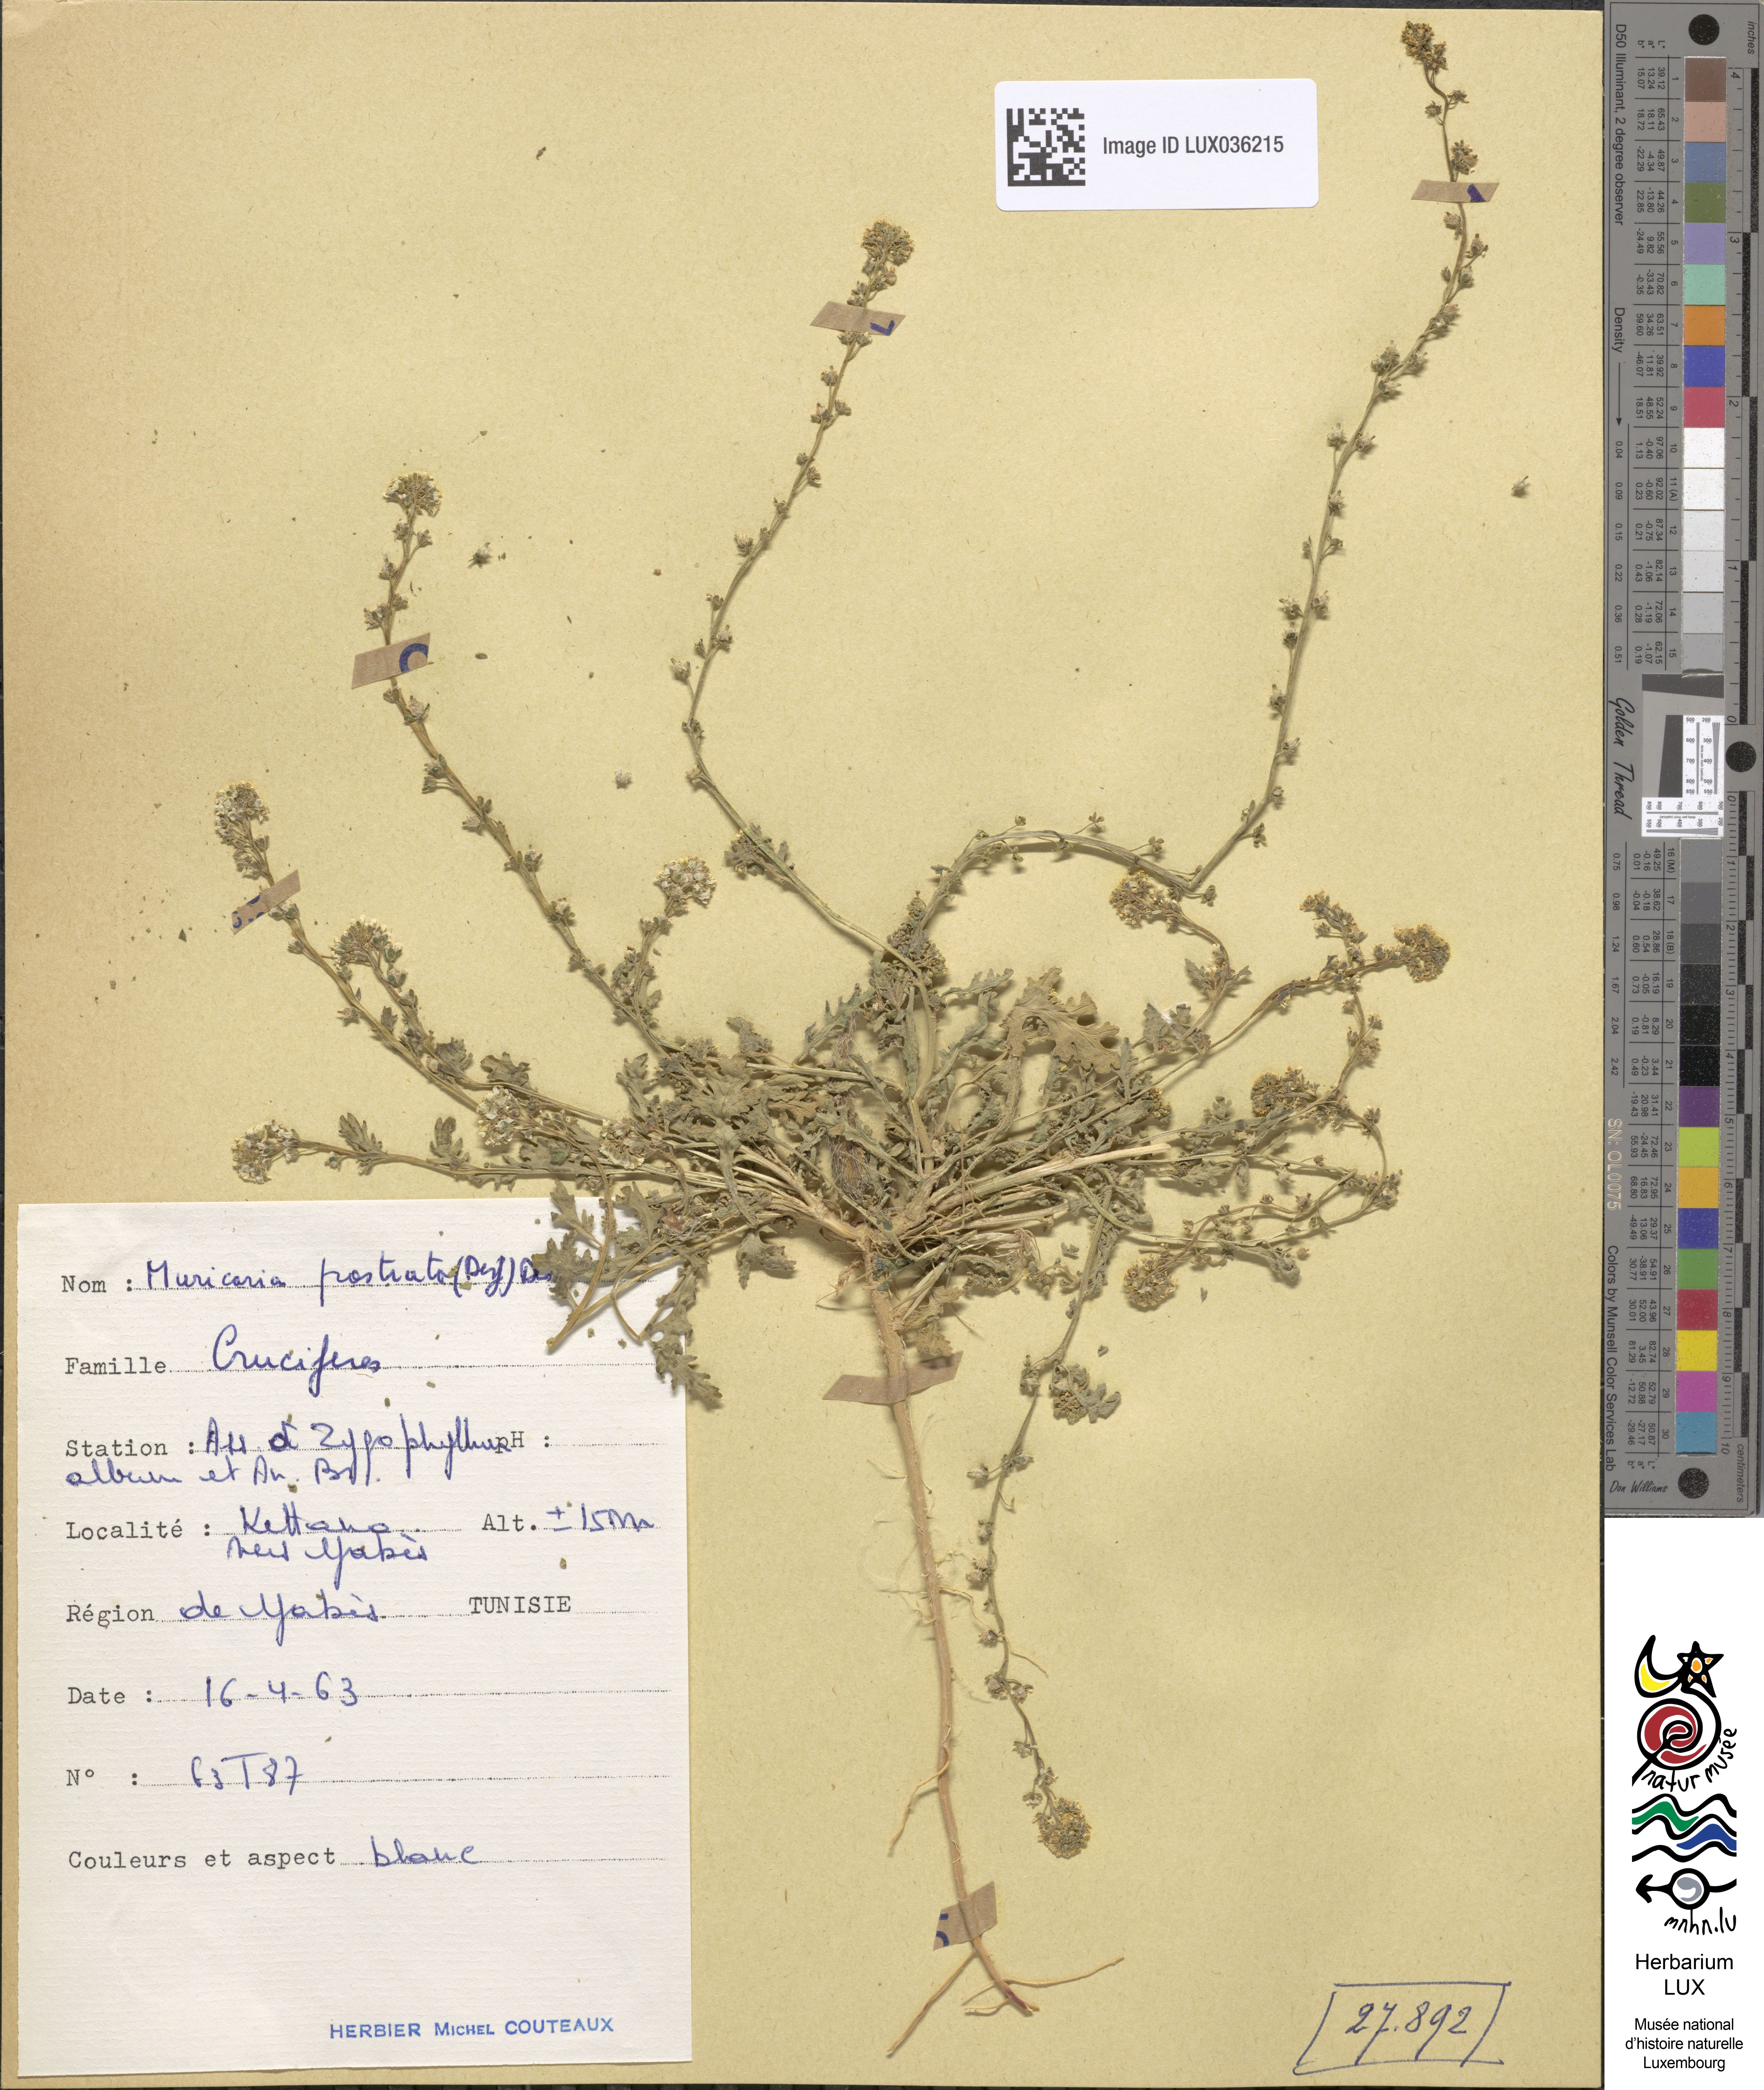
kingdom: Plantae
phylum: Tracheophyta
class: Magnoliopsida
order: Brassicales
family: Brassicaceae
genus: Muricaria
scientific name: Muricaria prostrata
